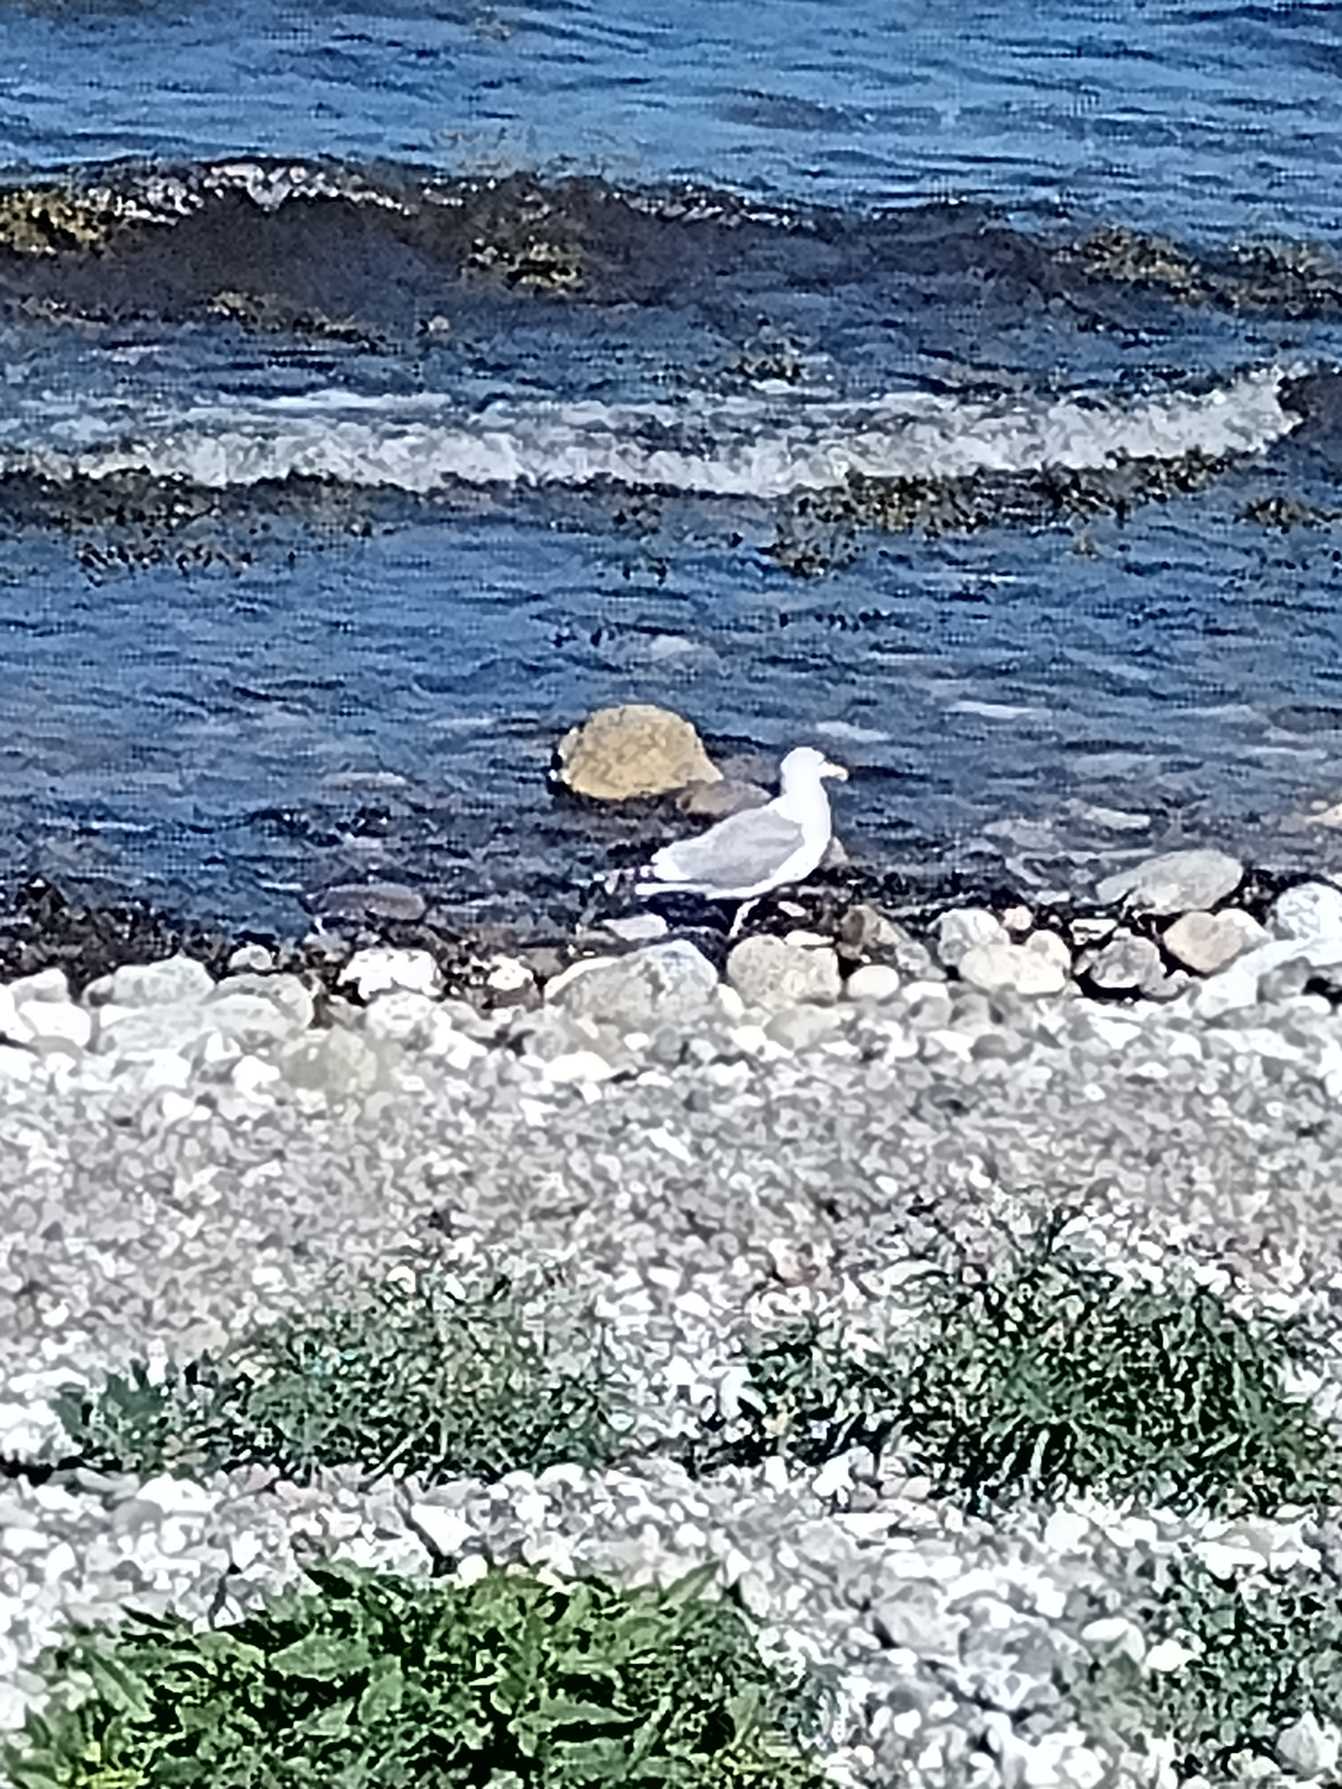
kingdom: Animalia
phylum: Chordata
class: Aves
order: Charadriiformes
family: Laridae
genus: Larus
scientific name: Larus argentatus
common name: Sølvmåge
